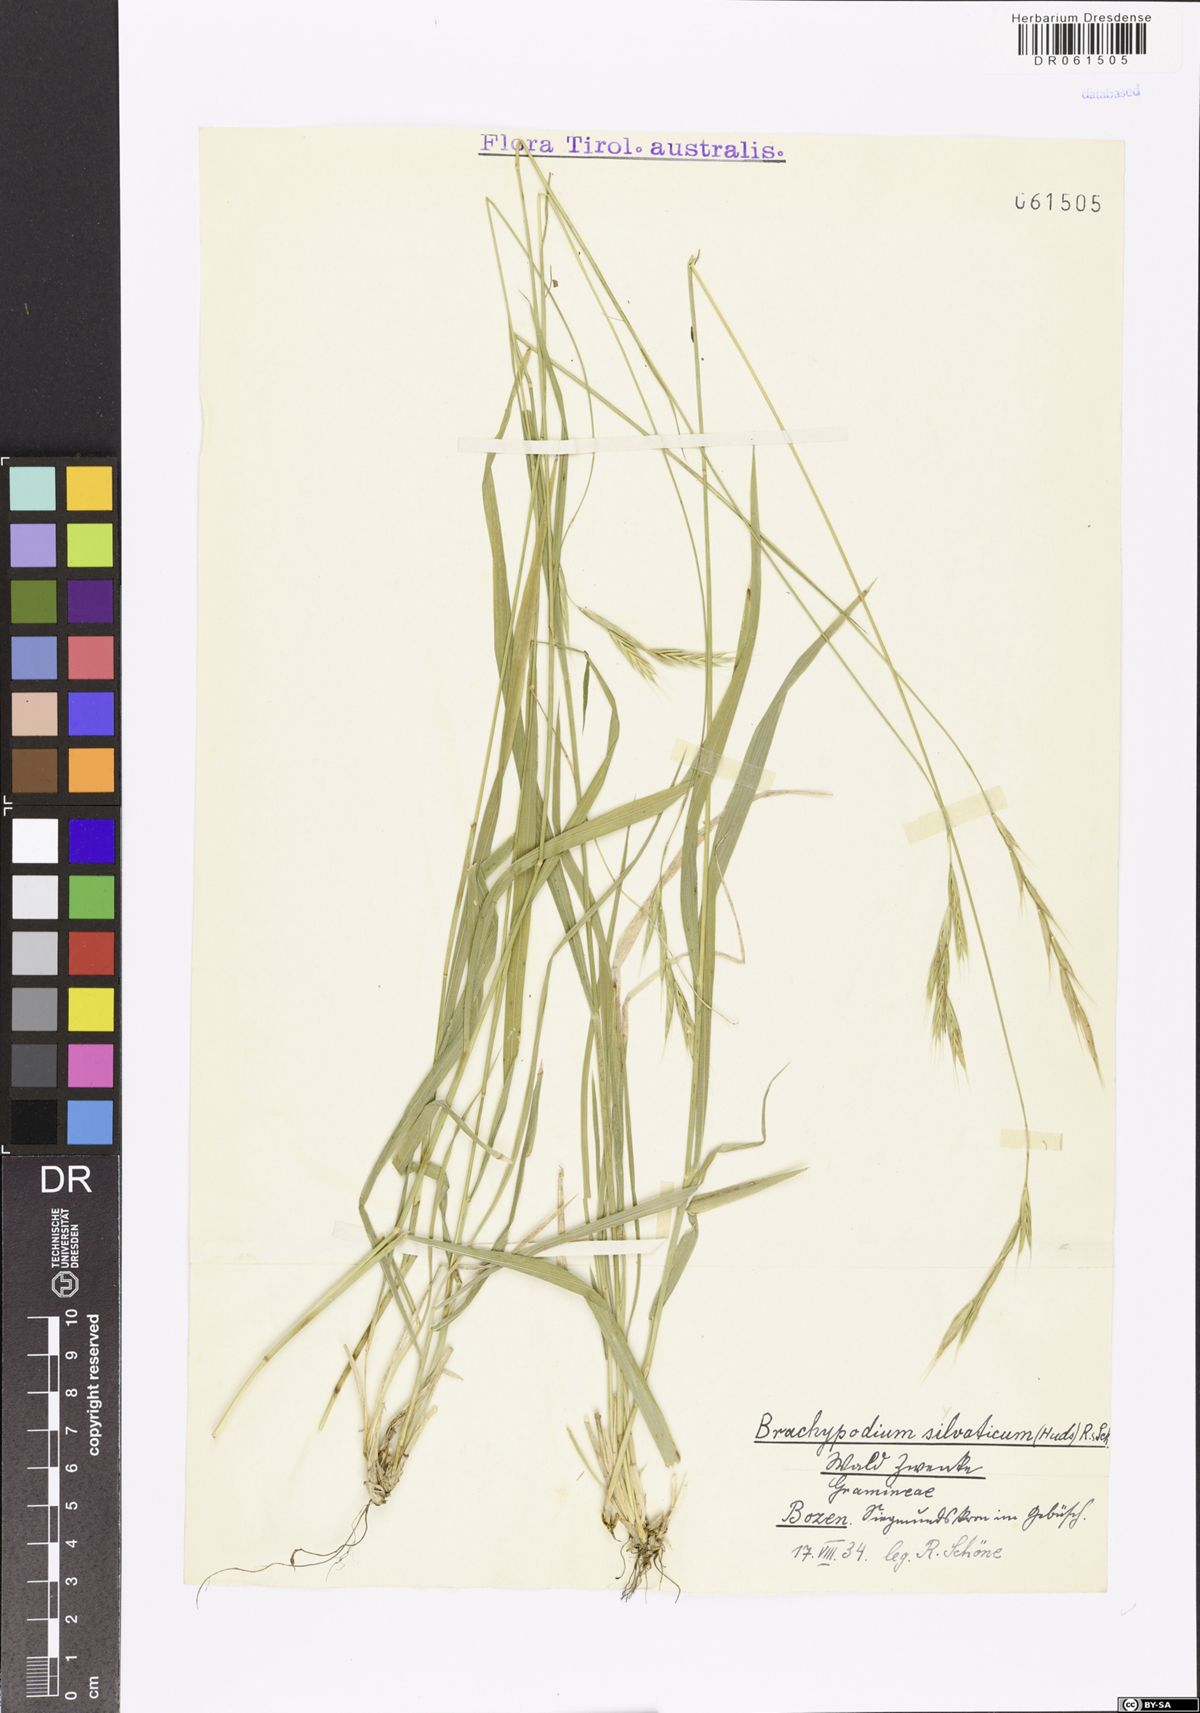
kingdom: Plantae
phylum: Tracheophyta
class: Liliopsida
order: Poales
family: Poaceae
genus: Brachypodium
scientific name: Brachypodium sylvaticum
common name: False-brome
